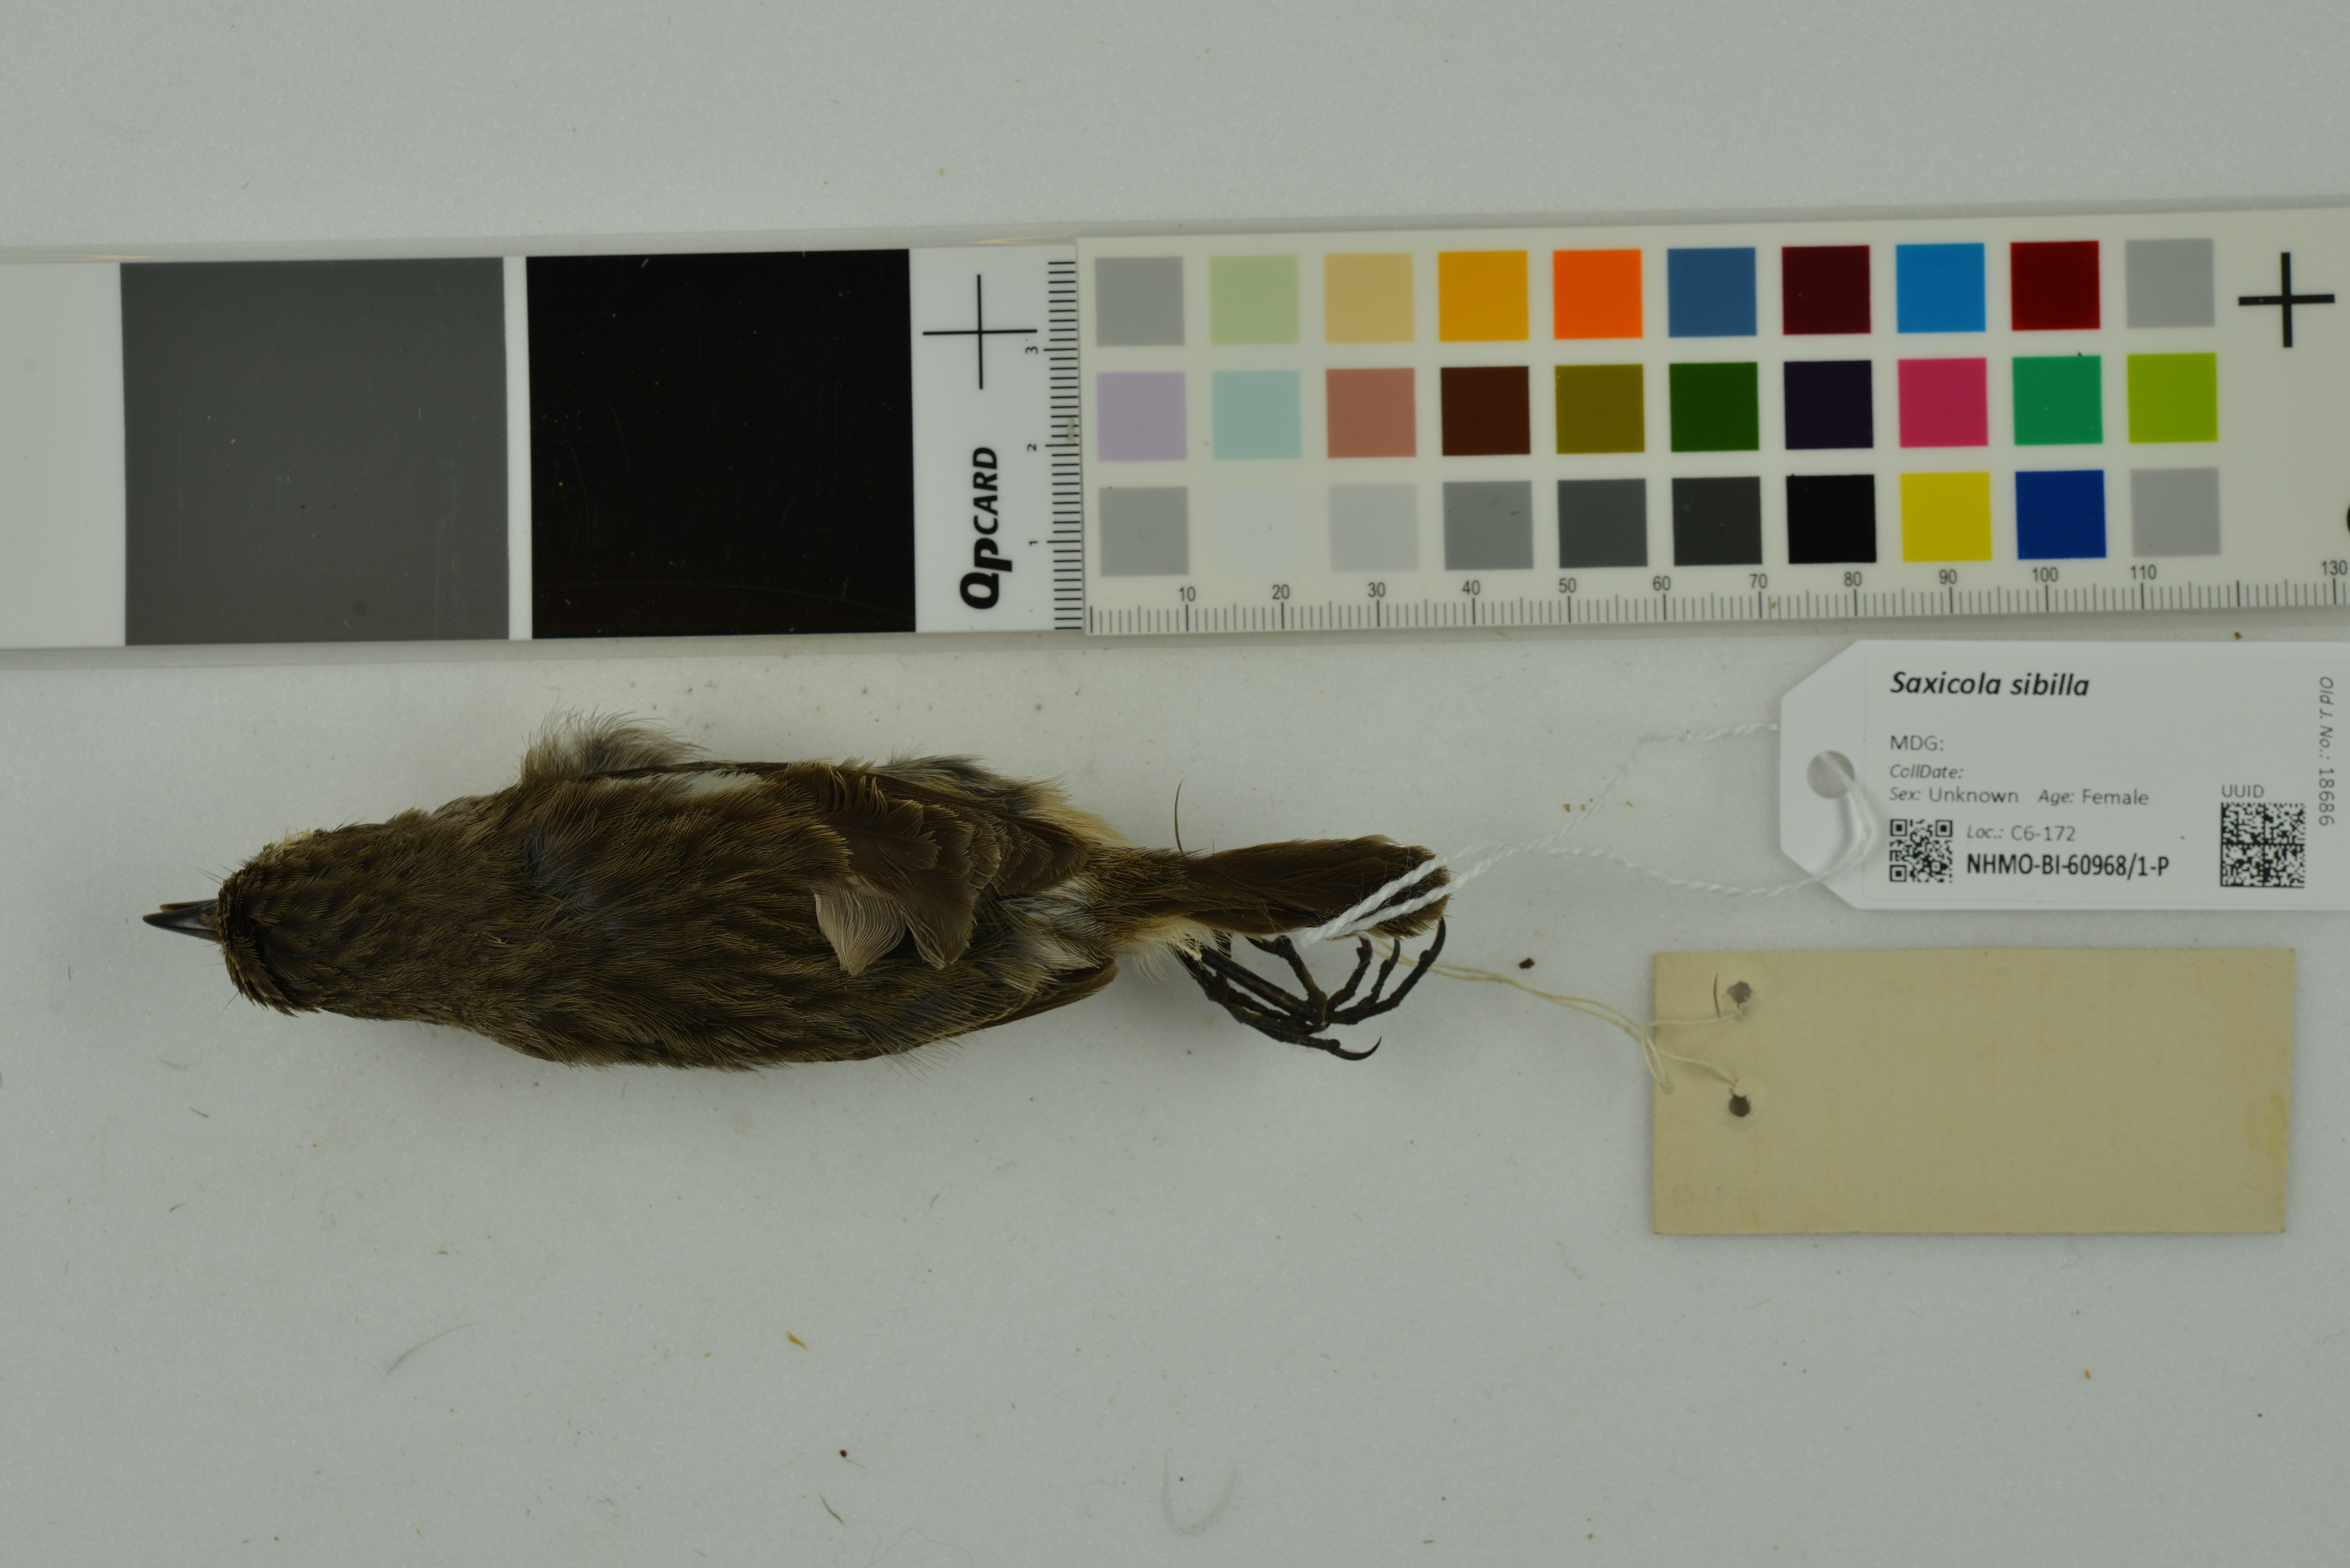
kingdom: Animalia
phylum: Chordata
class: Aves
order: Passeriformes
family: Muscicapidae
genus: Saxicola
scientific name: Saxicola sibilla
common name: Madagascan stonechat
